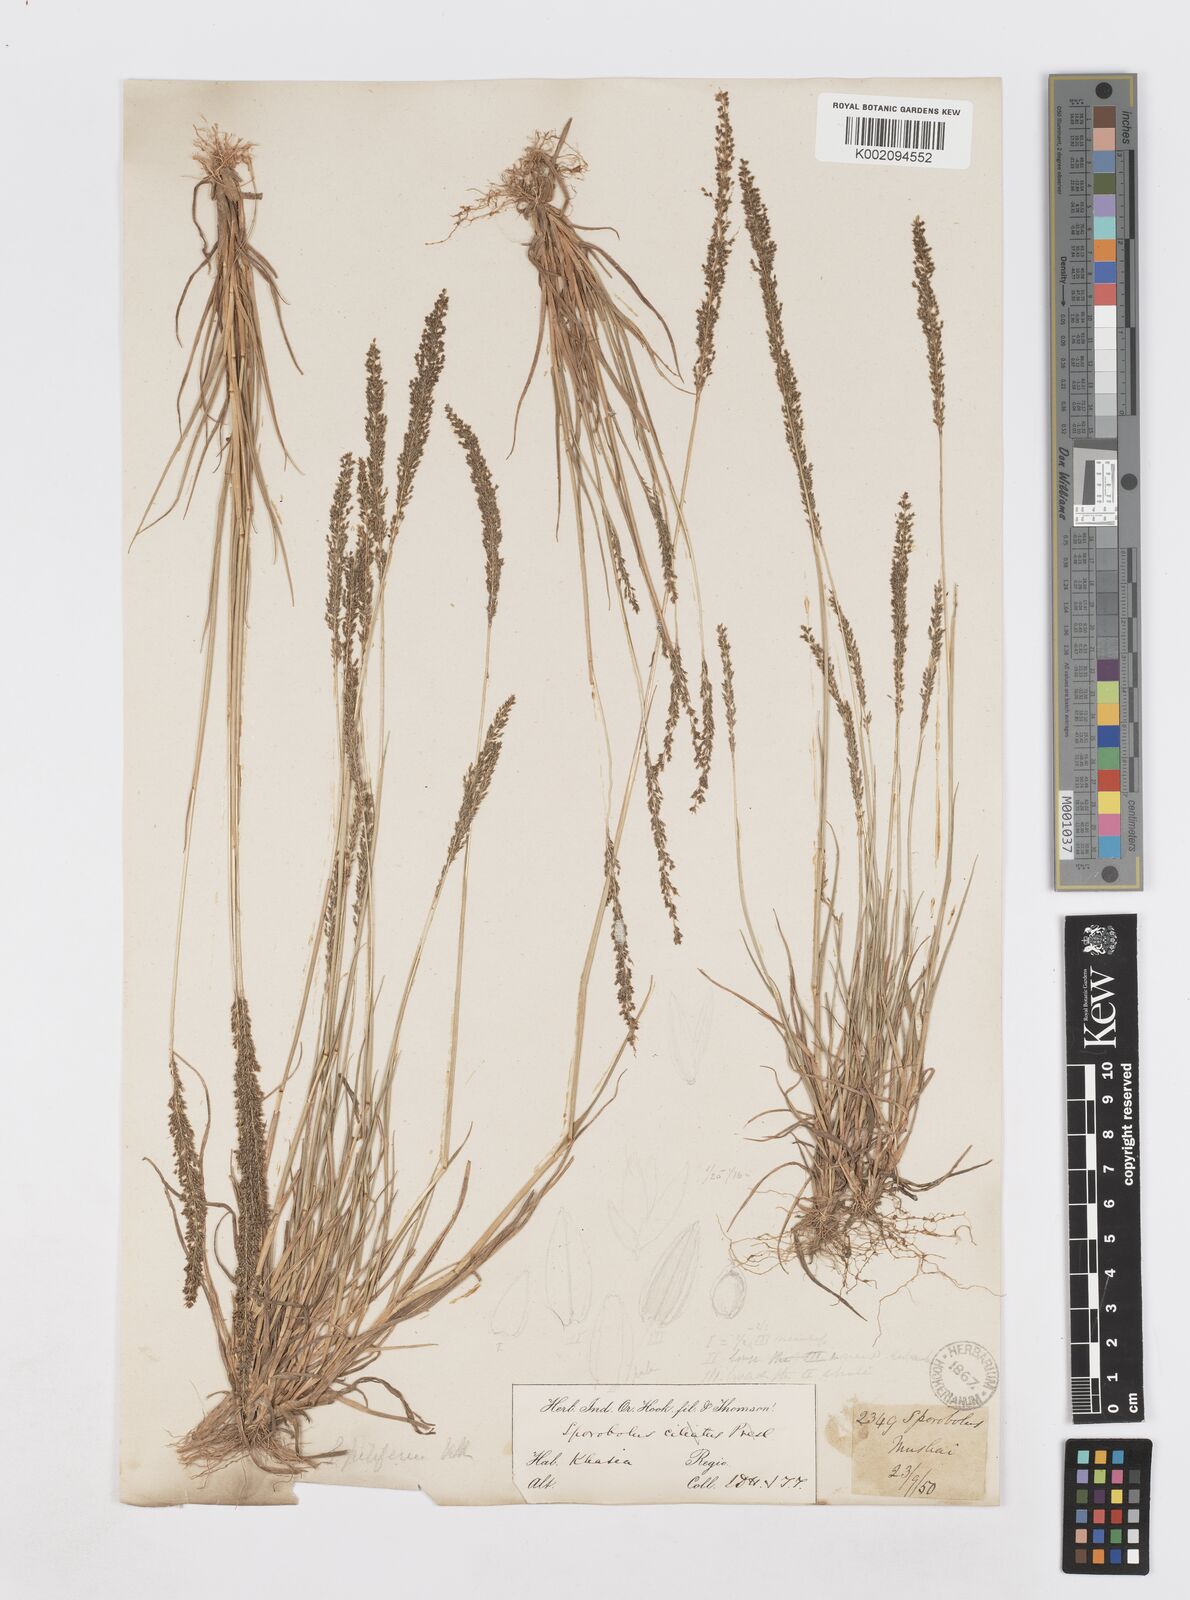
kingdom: Plantae
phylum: Tracheophyta
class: Liliopsida
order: Poales
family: Poaceae
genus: Sporobolus
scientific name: Sporobolus pilifer
